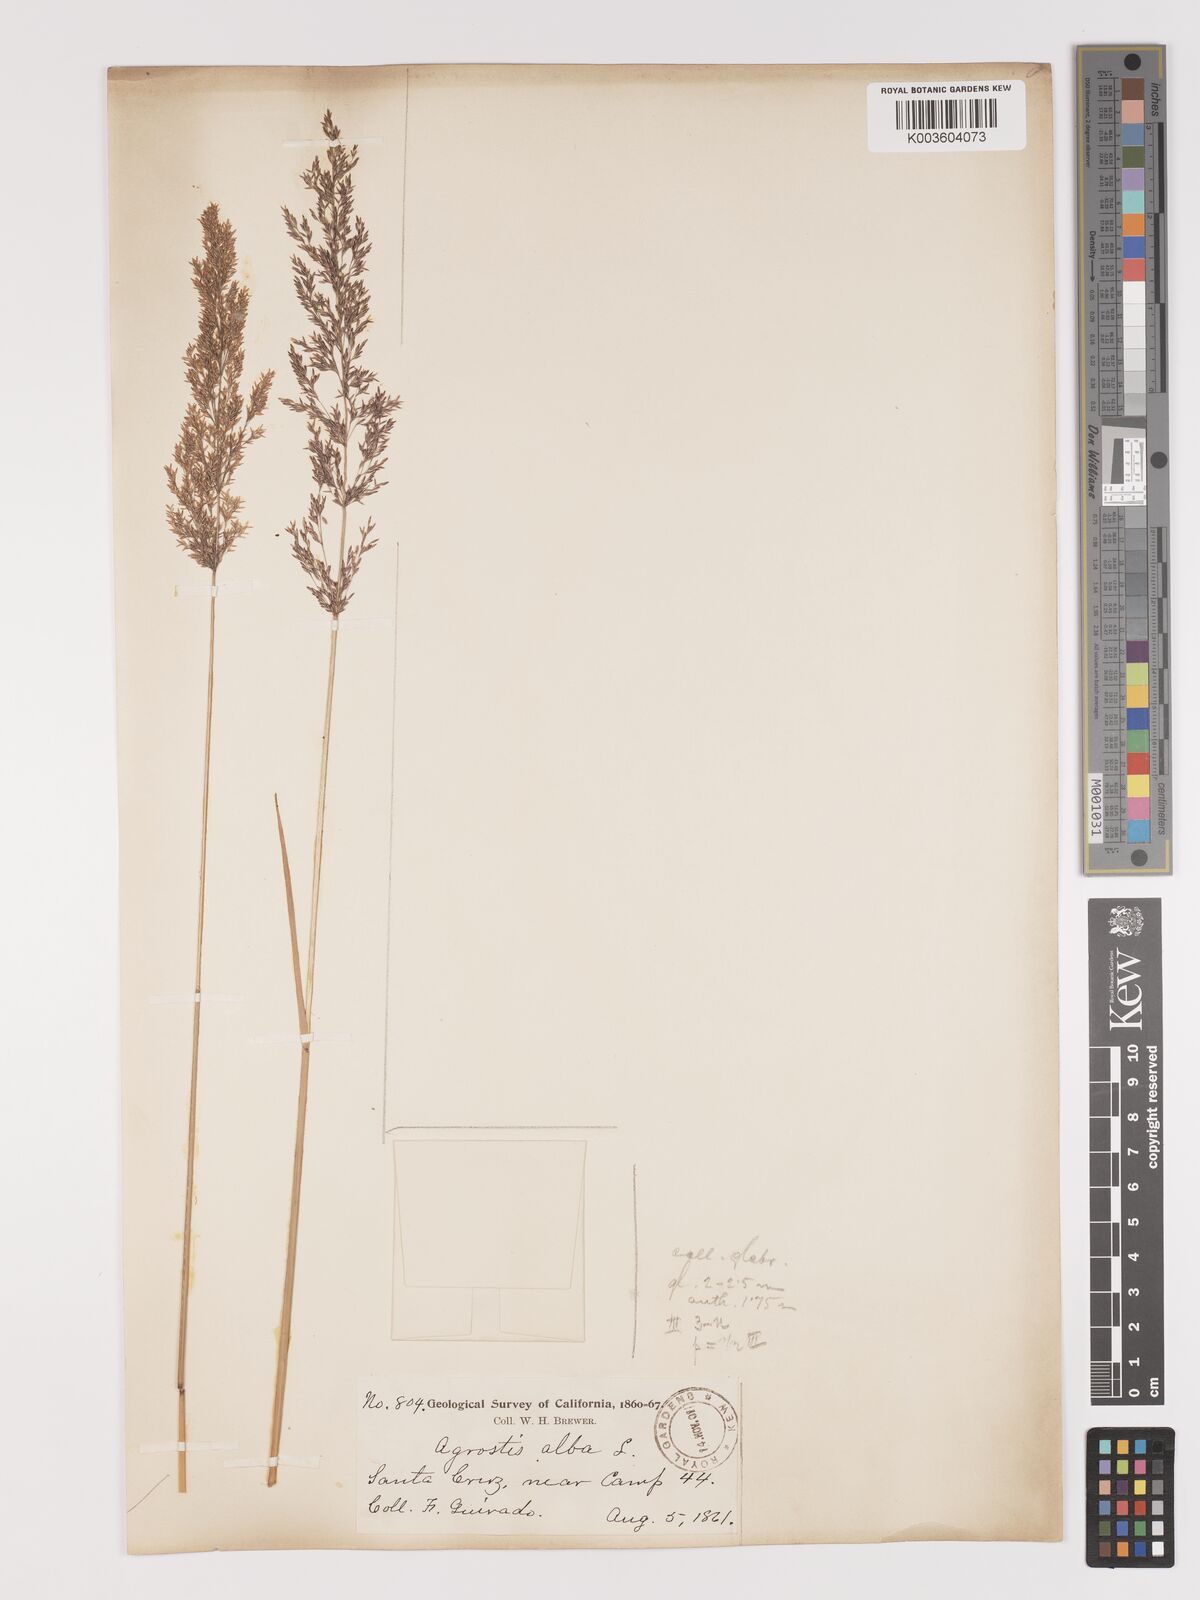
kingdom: Plantae
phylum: Tracheophyta
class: Liliopsida
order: Poales
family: Poaceae
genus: Agrostis
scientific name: Agrostis gigantea
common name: Black bent
